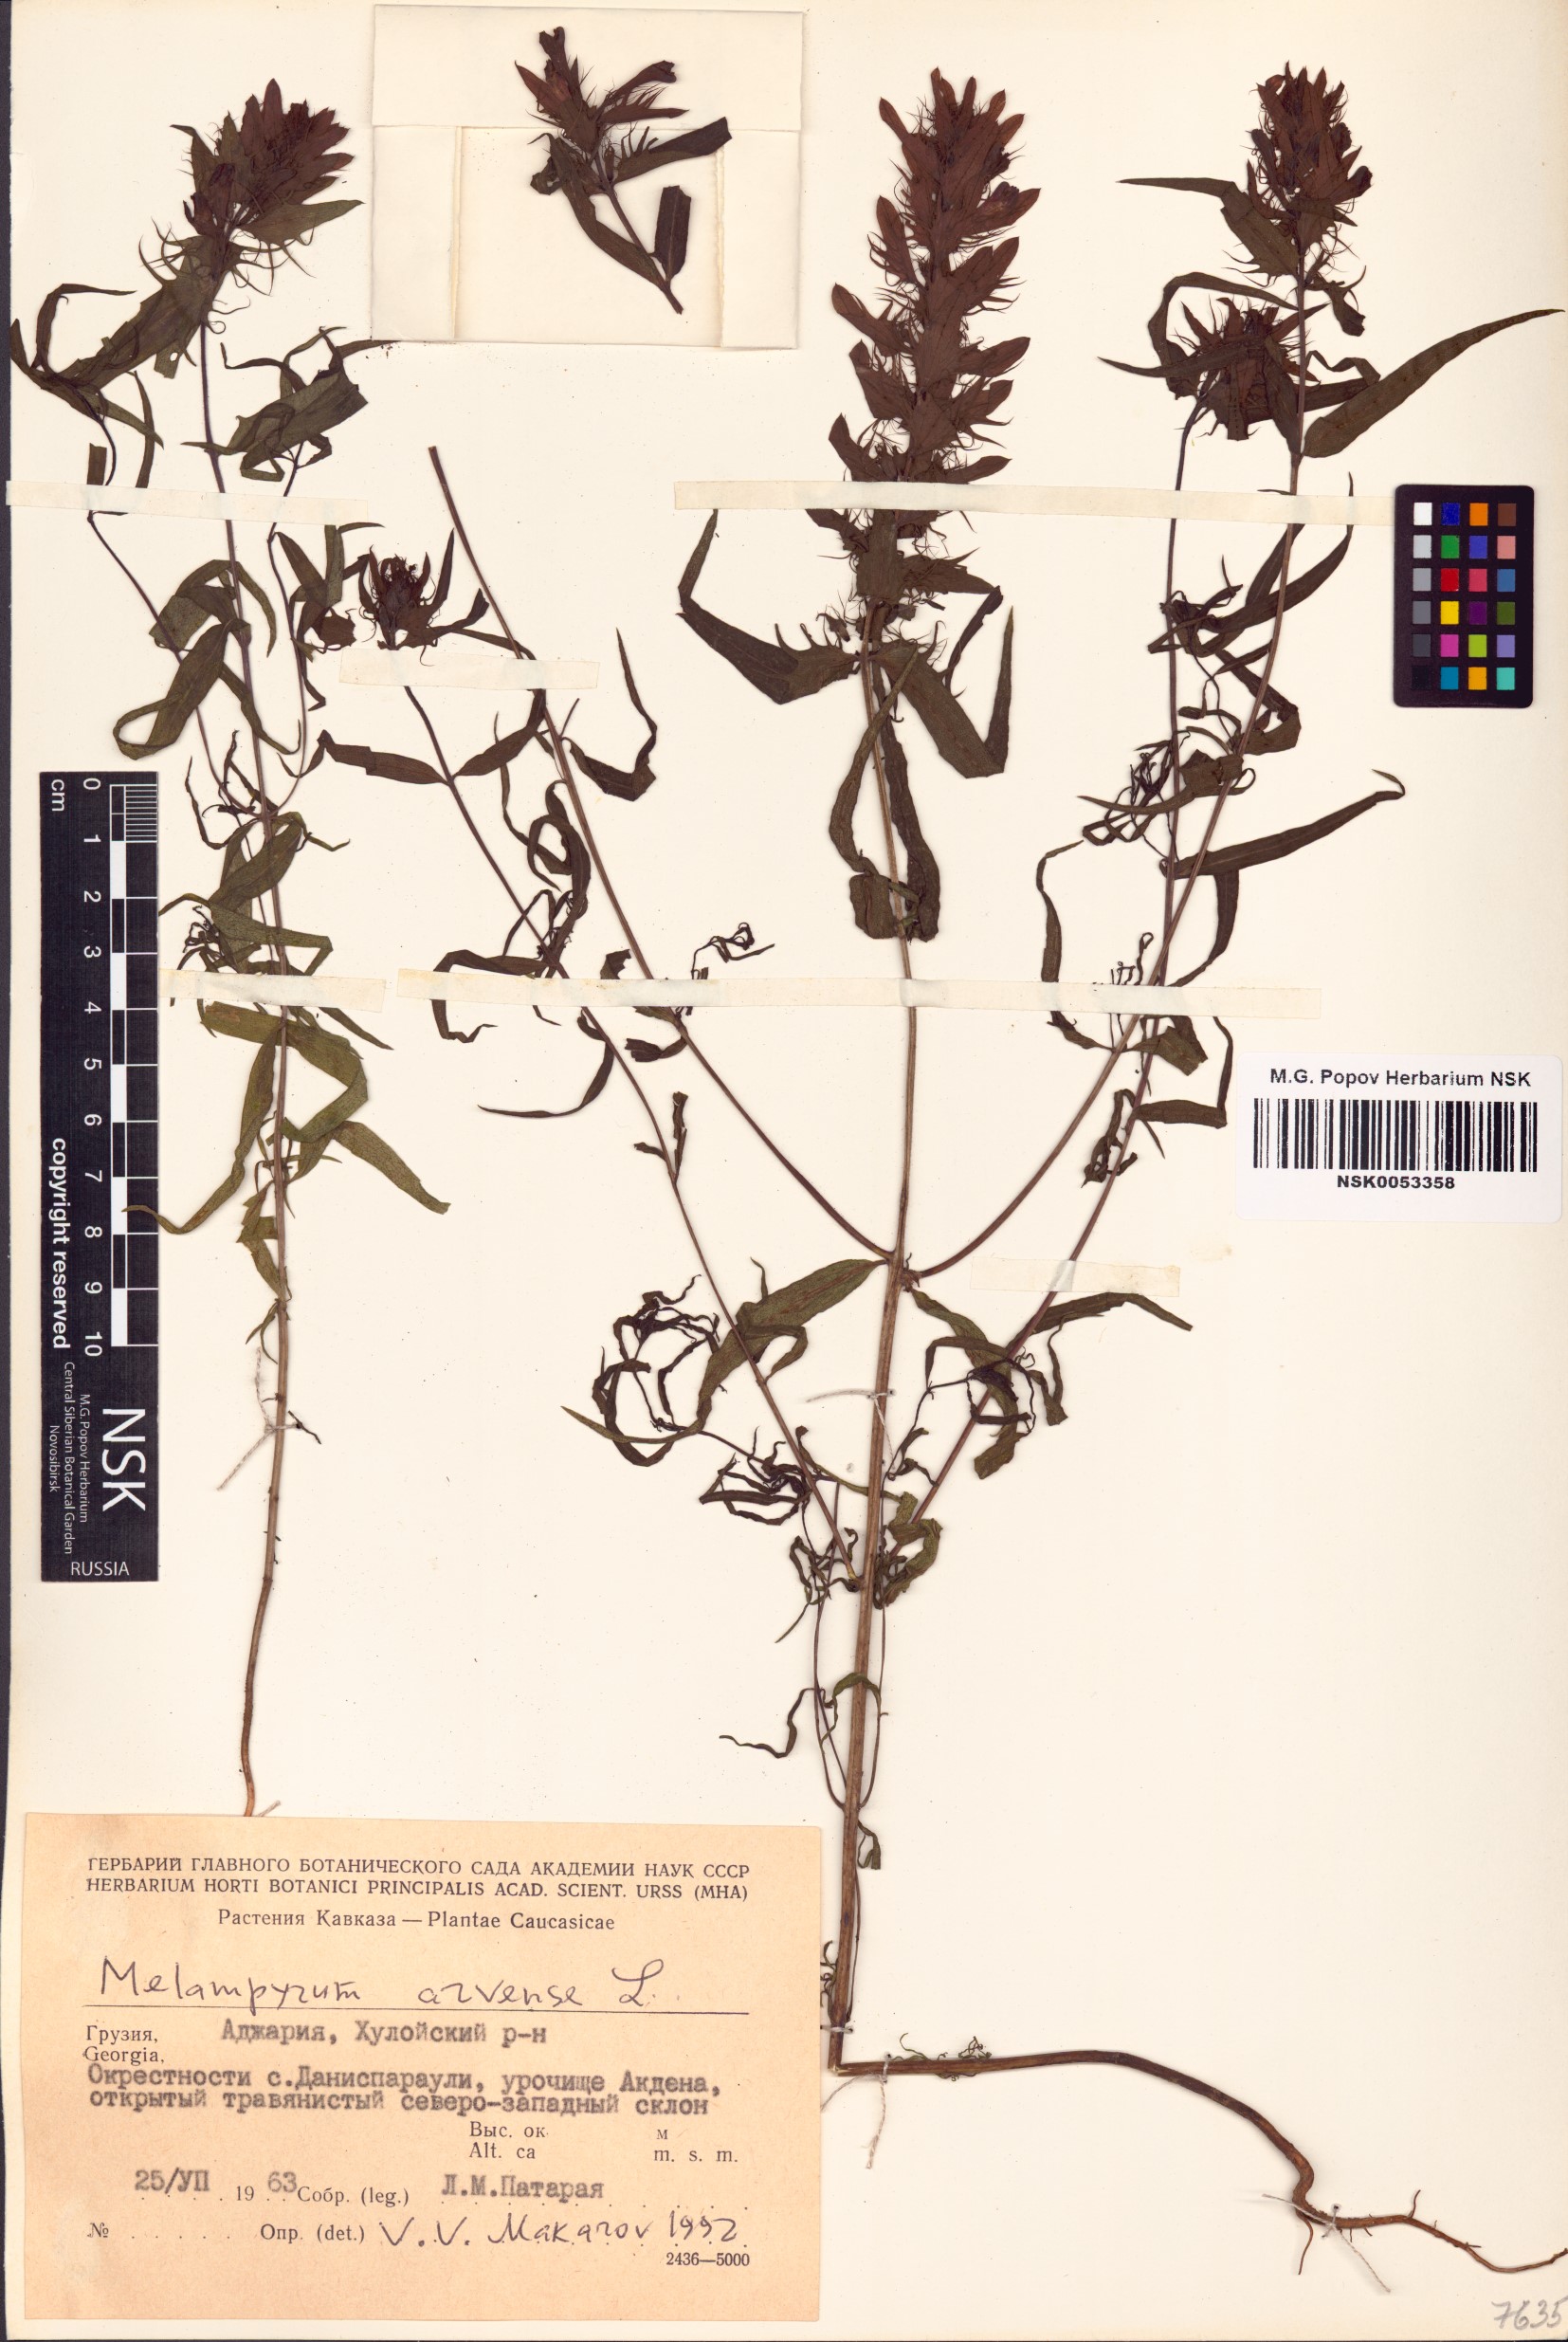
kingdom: Plantae
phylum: Tracheophyta
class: Magnoliopsida
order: Lamiales
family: Orobanchaceae
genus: Melampyrum
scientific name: Melampyrum arvense
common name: Field cow-wheat
